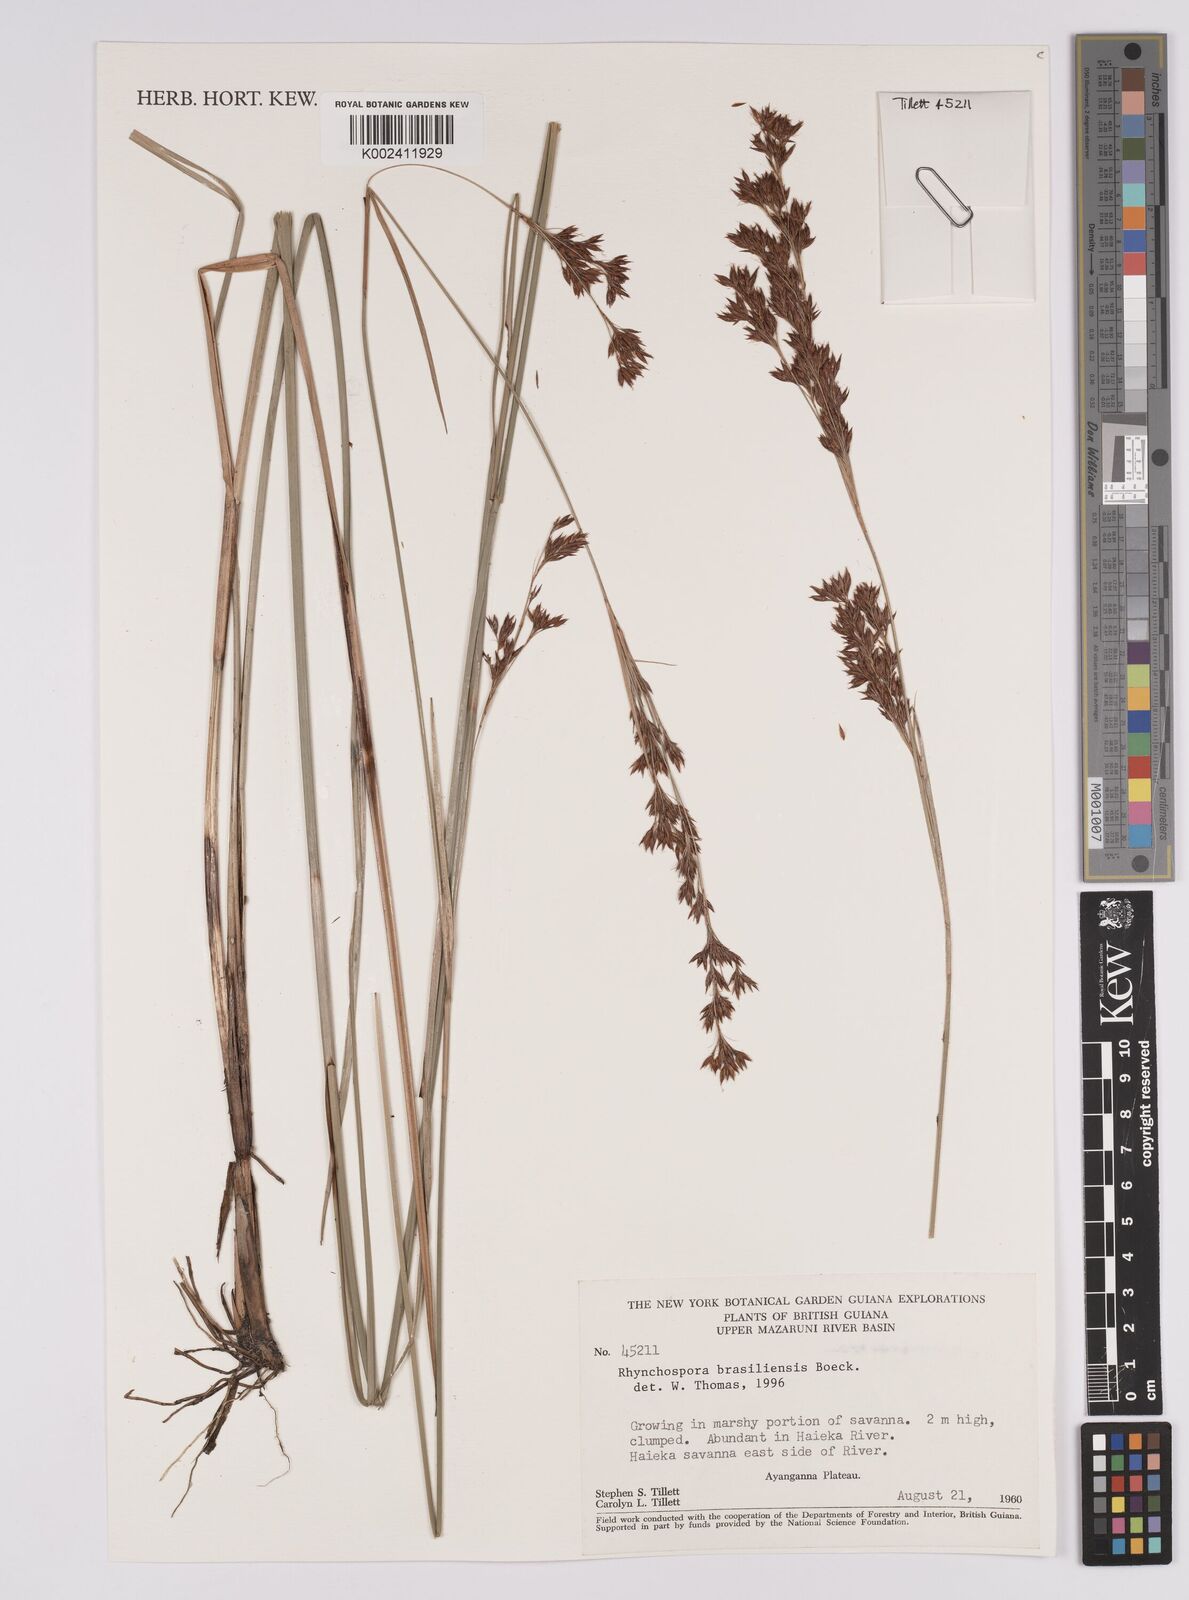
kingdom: Plantae
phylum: Tracheophyta
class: Liliopsida
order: Poales
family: Cyperaceae
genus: Rhynchospora
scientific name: Rhynchospora brasiliensis
